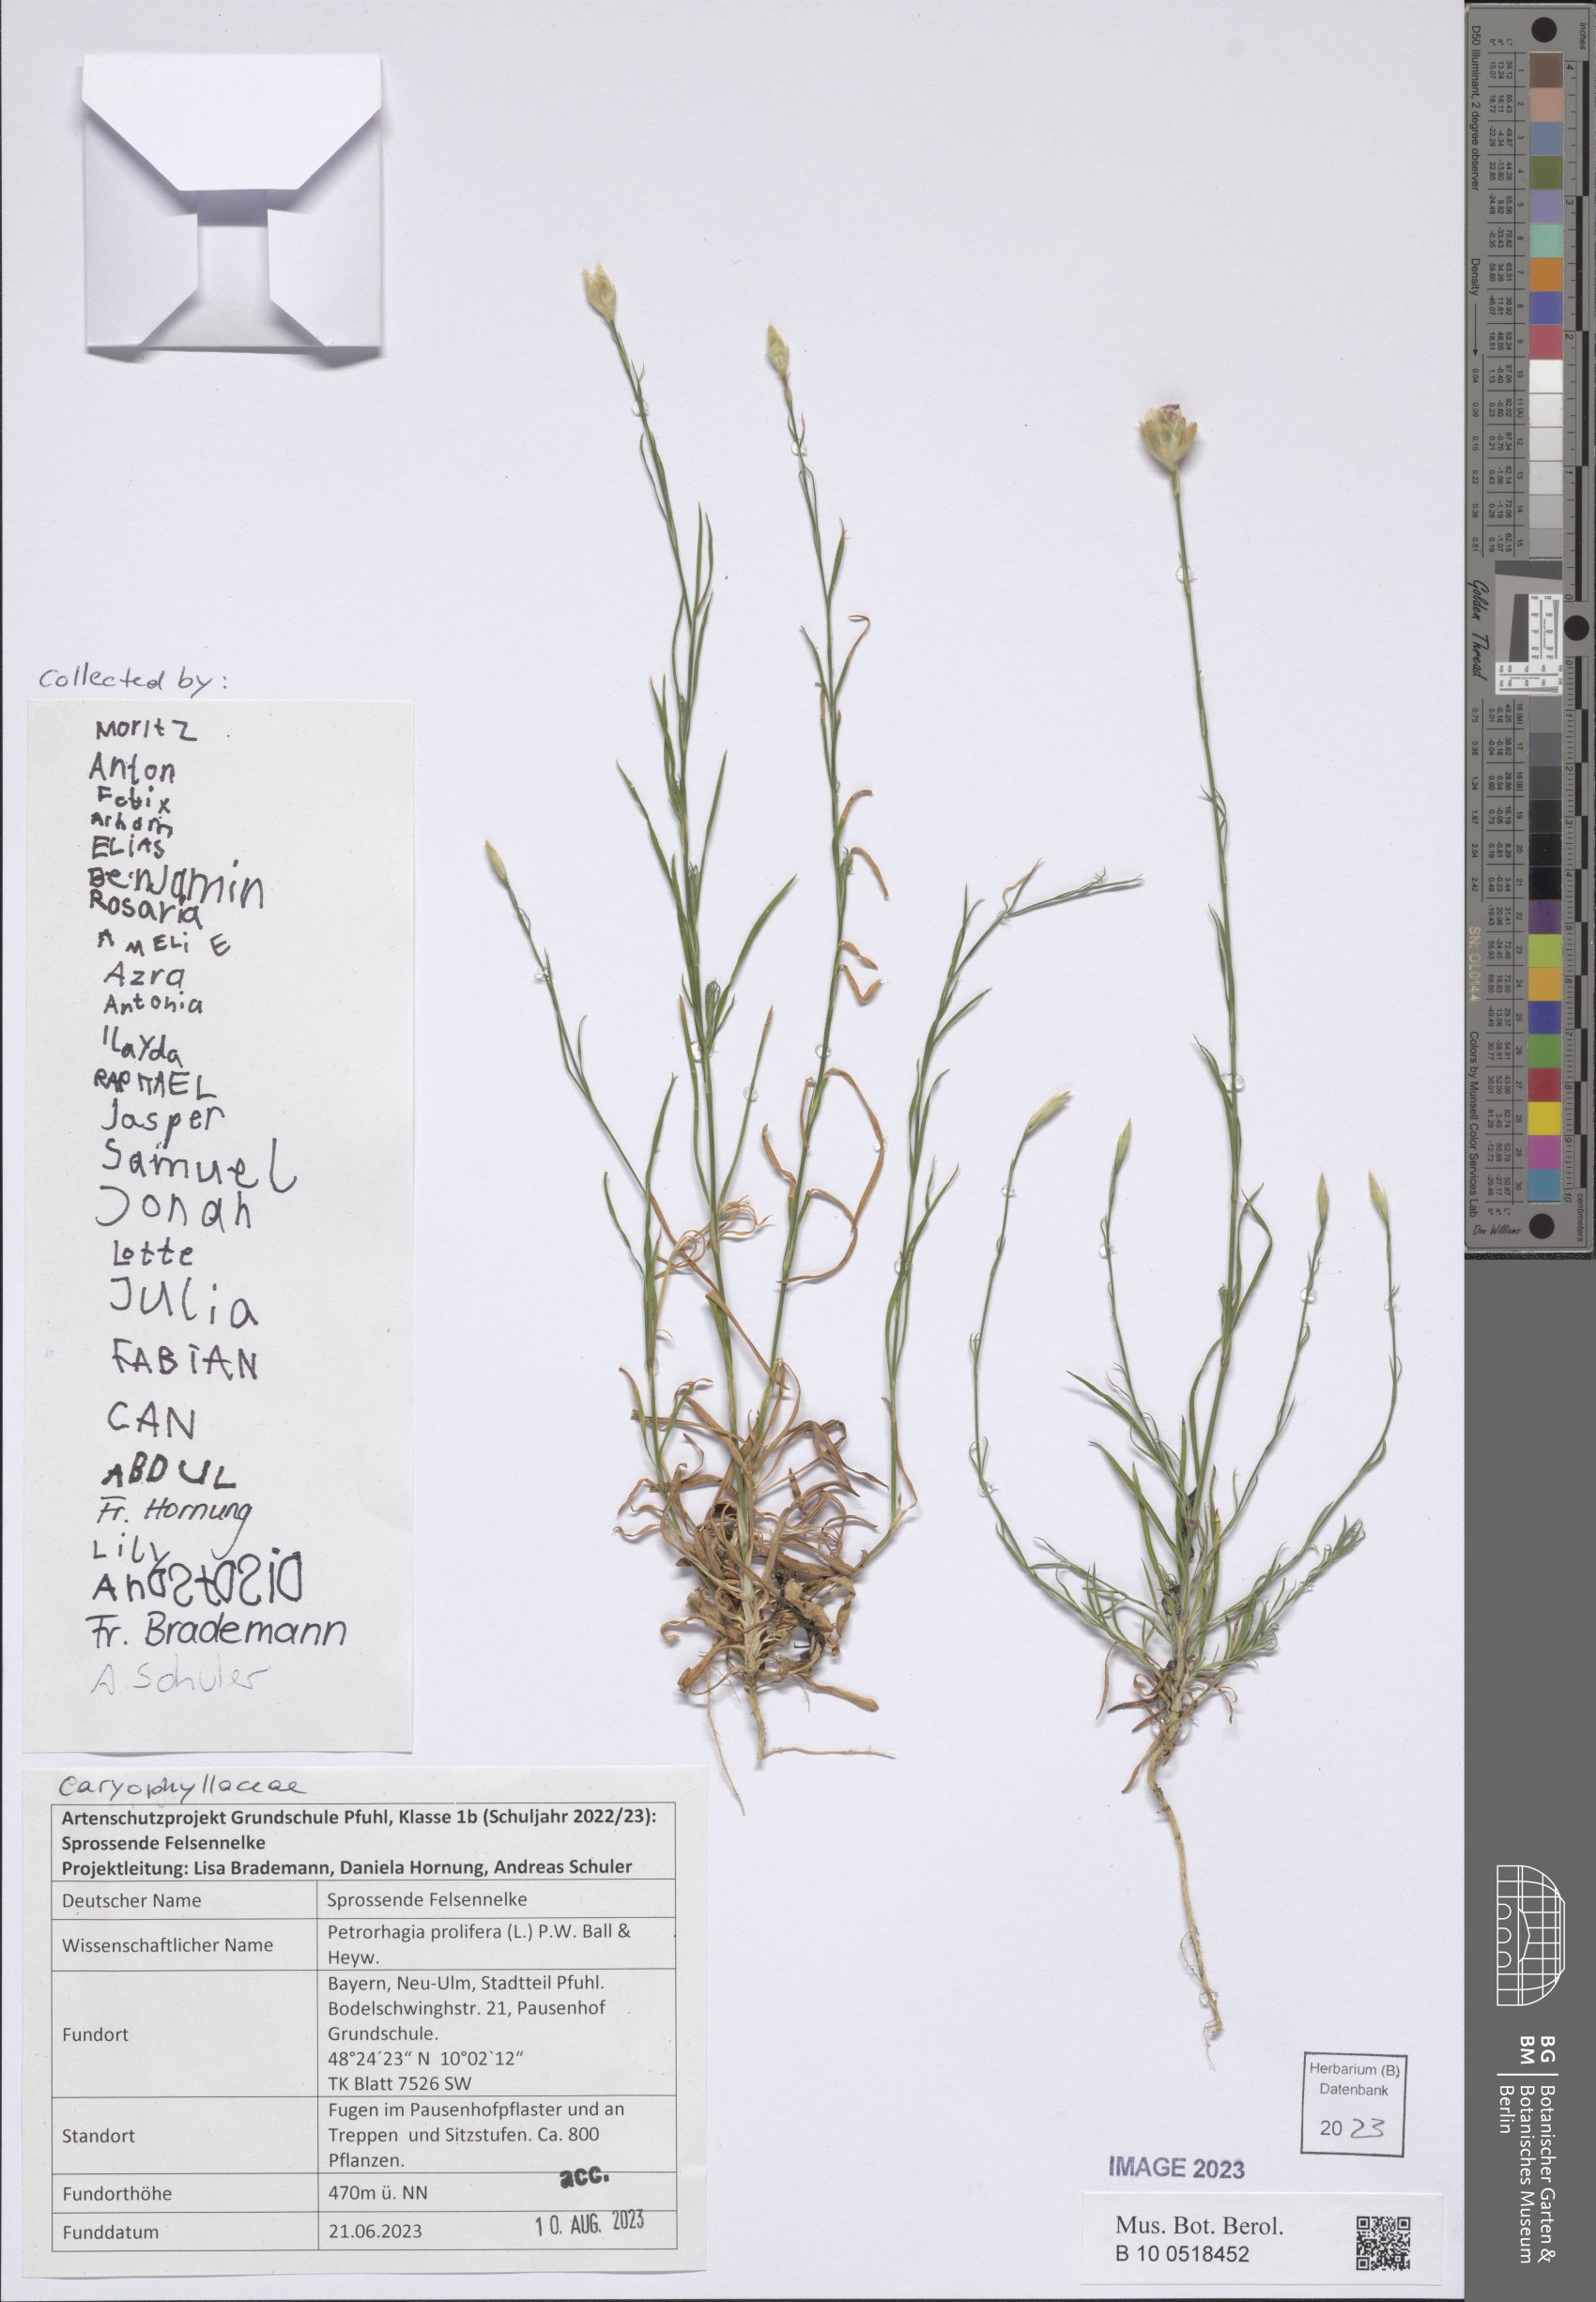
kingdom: Plantae
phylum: Tracheophyta
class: Magnoliopsida
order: Caryophyllales
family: Caryophyllaceae
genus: Petrorhagia
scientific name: Petrorhagia prolifera
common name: Proliferous pink
